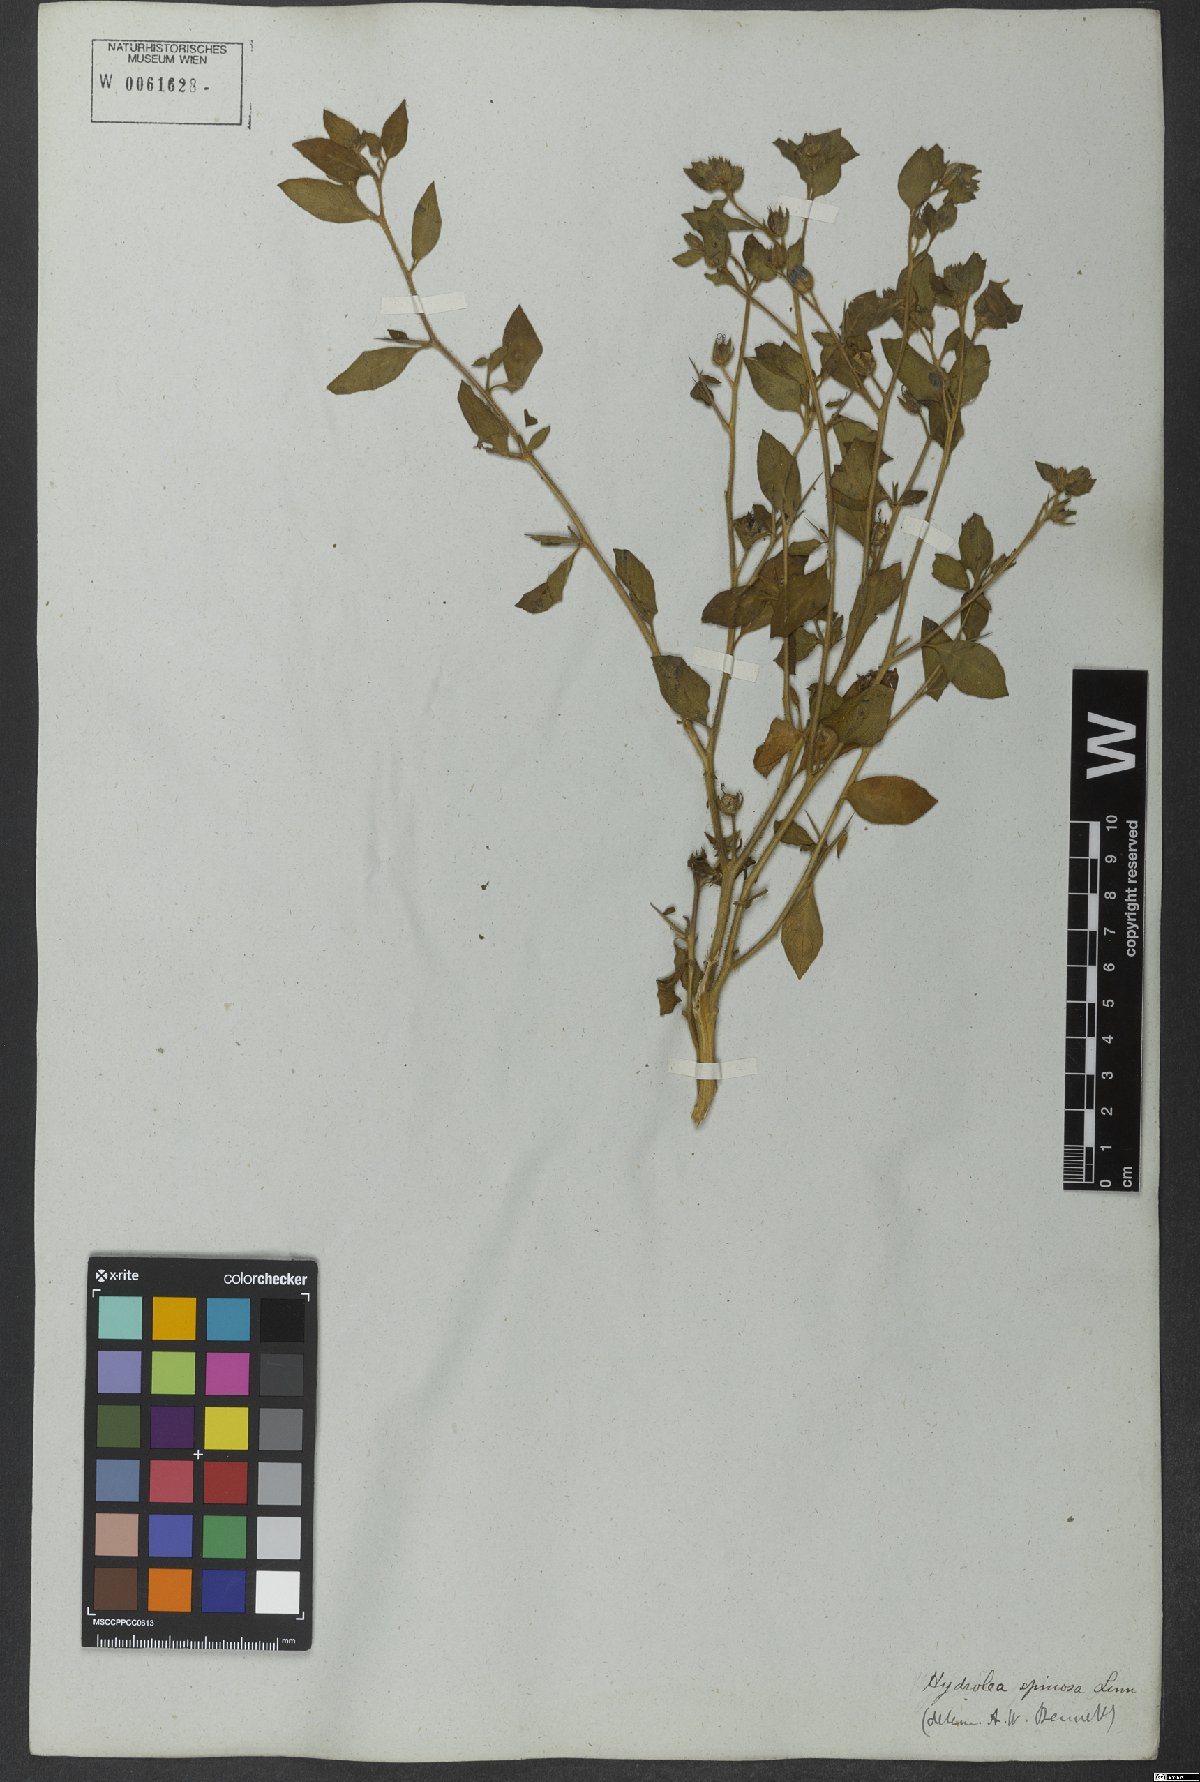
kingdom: Plantae
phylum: Tracheophyta
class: Magnoliopsida
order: Solanales
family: Hydroleaceae
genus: Hydrolea
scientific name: Hydrolea spinosa
